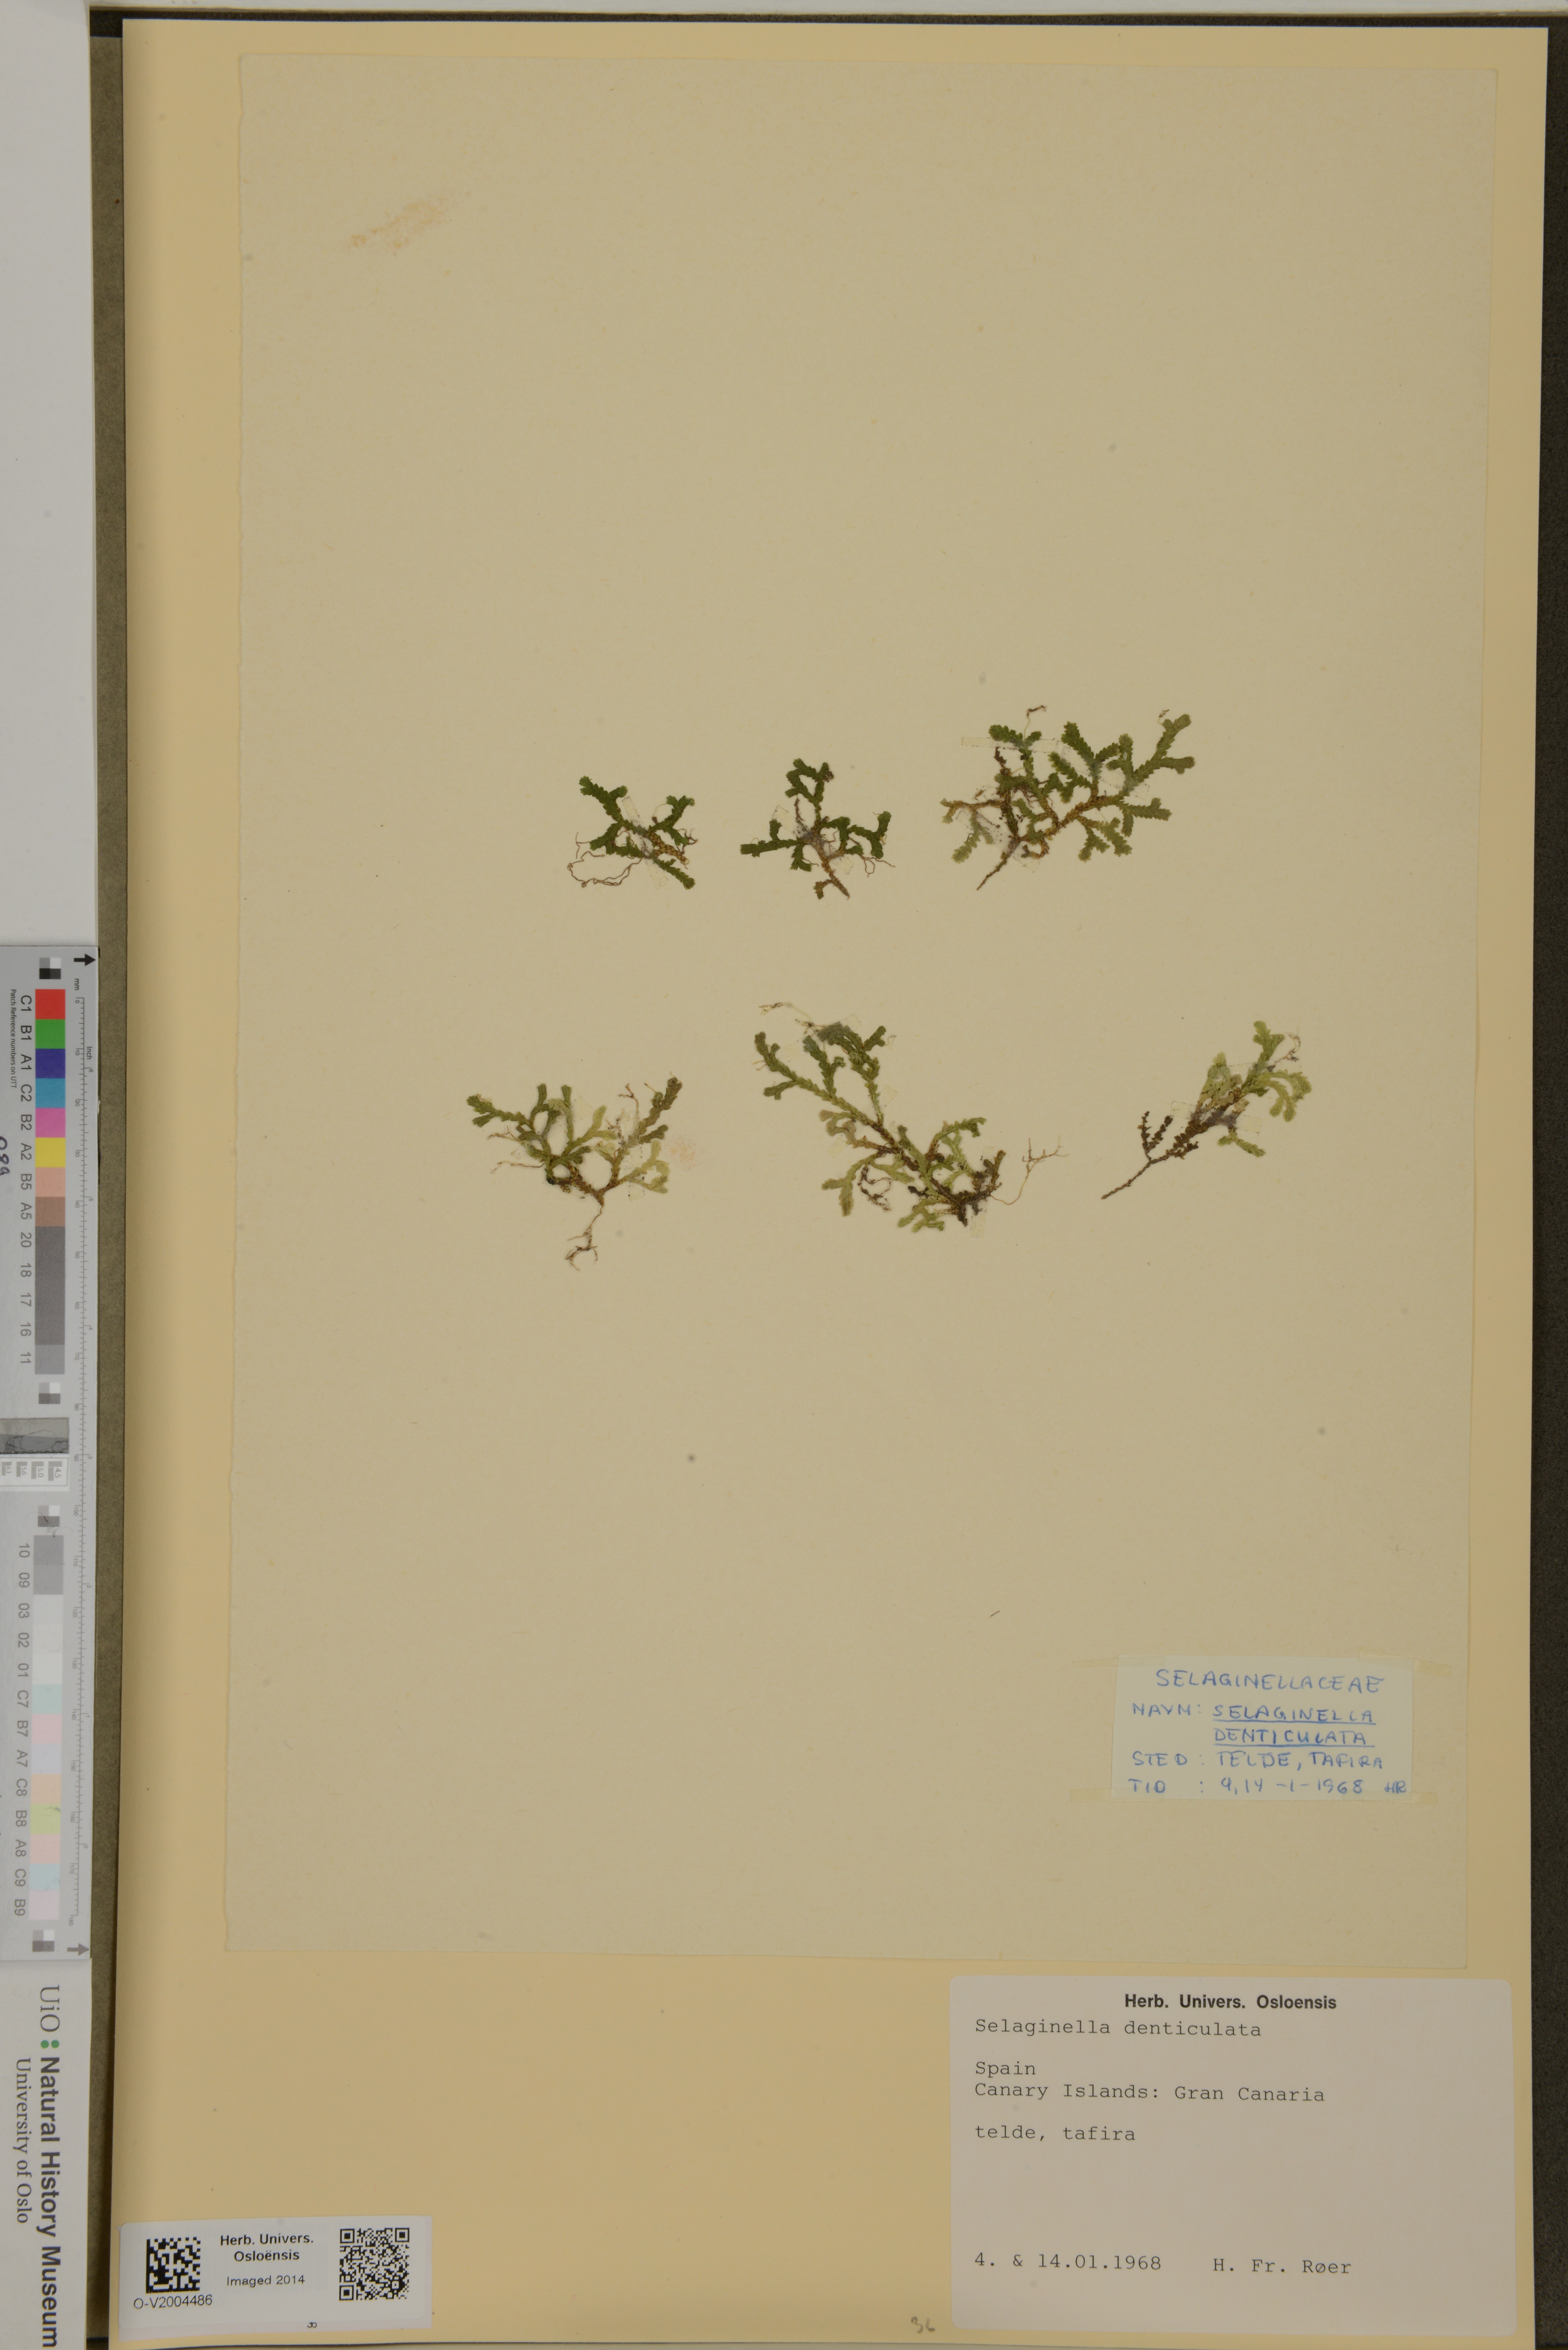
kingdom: Plantae
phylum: Tracheophyta
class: Lycopodiopsida
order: Selaginellales
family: Selaginellaceae
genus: Selaginella
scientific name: Selaginella denticulata
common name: Toothed-leaved clubmoss
